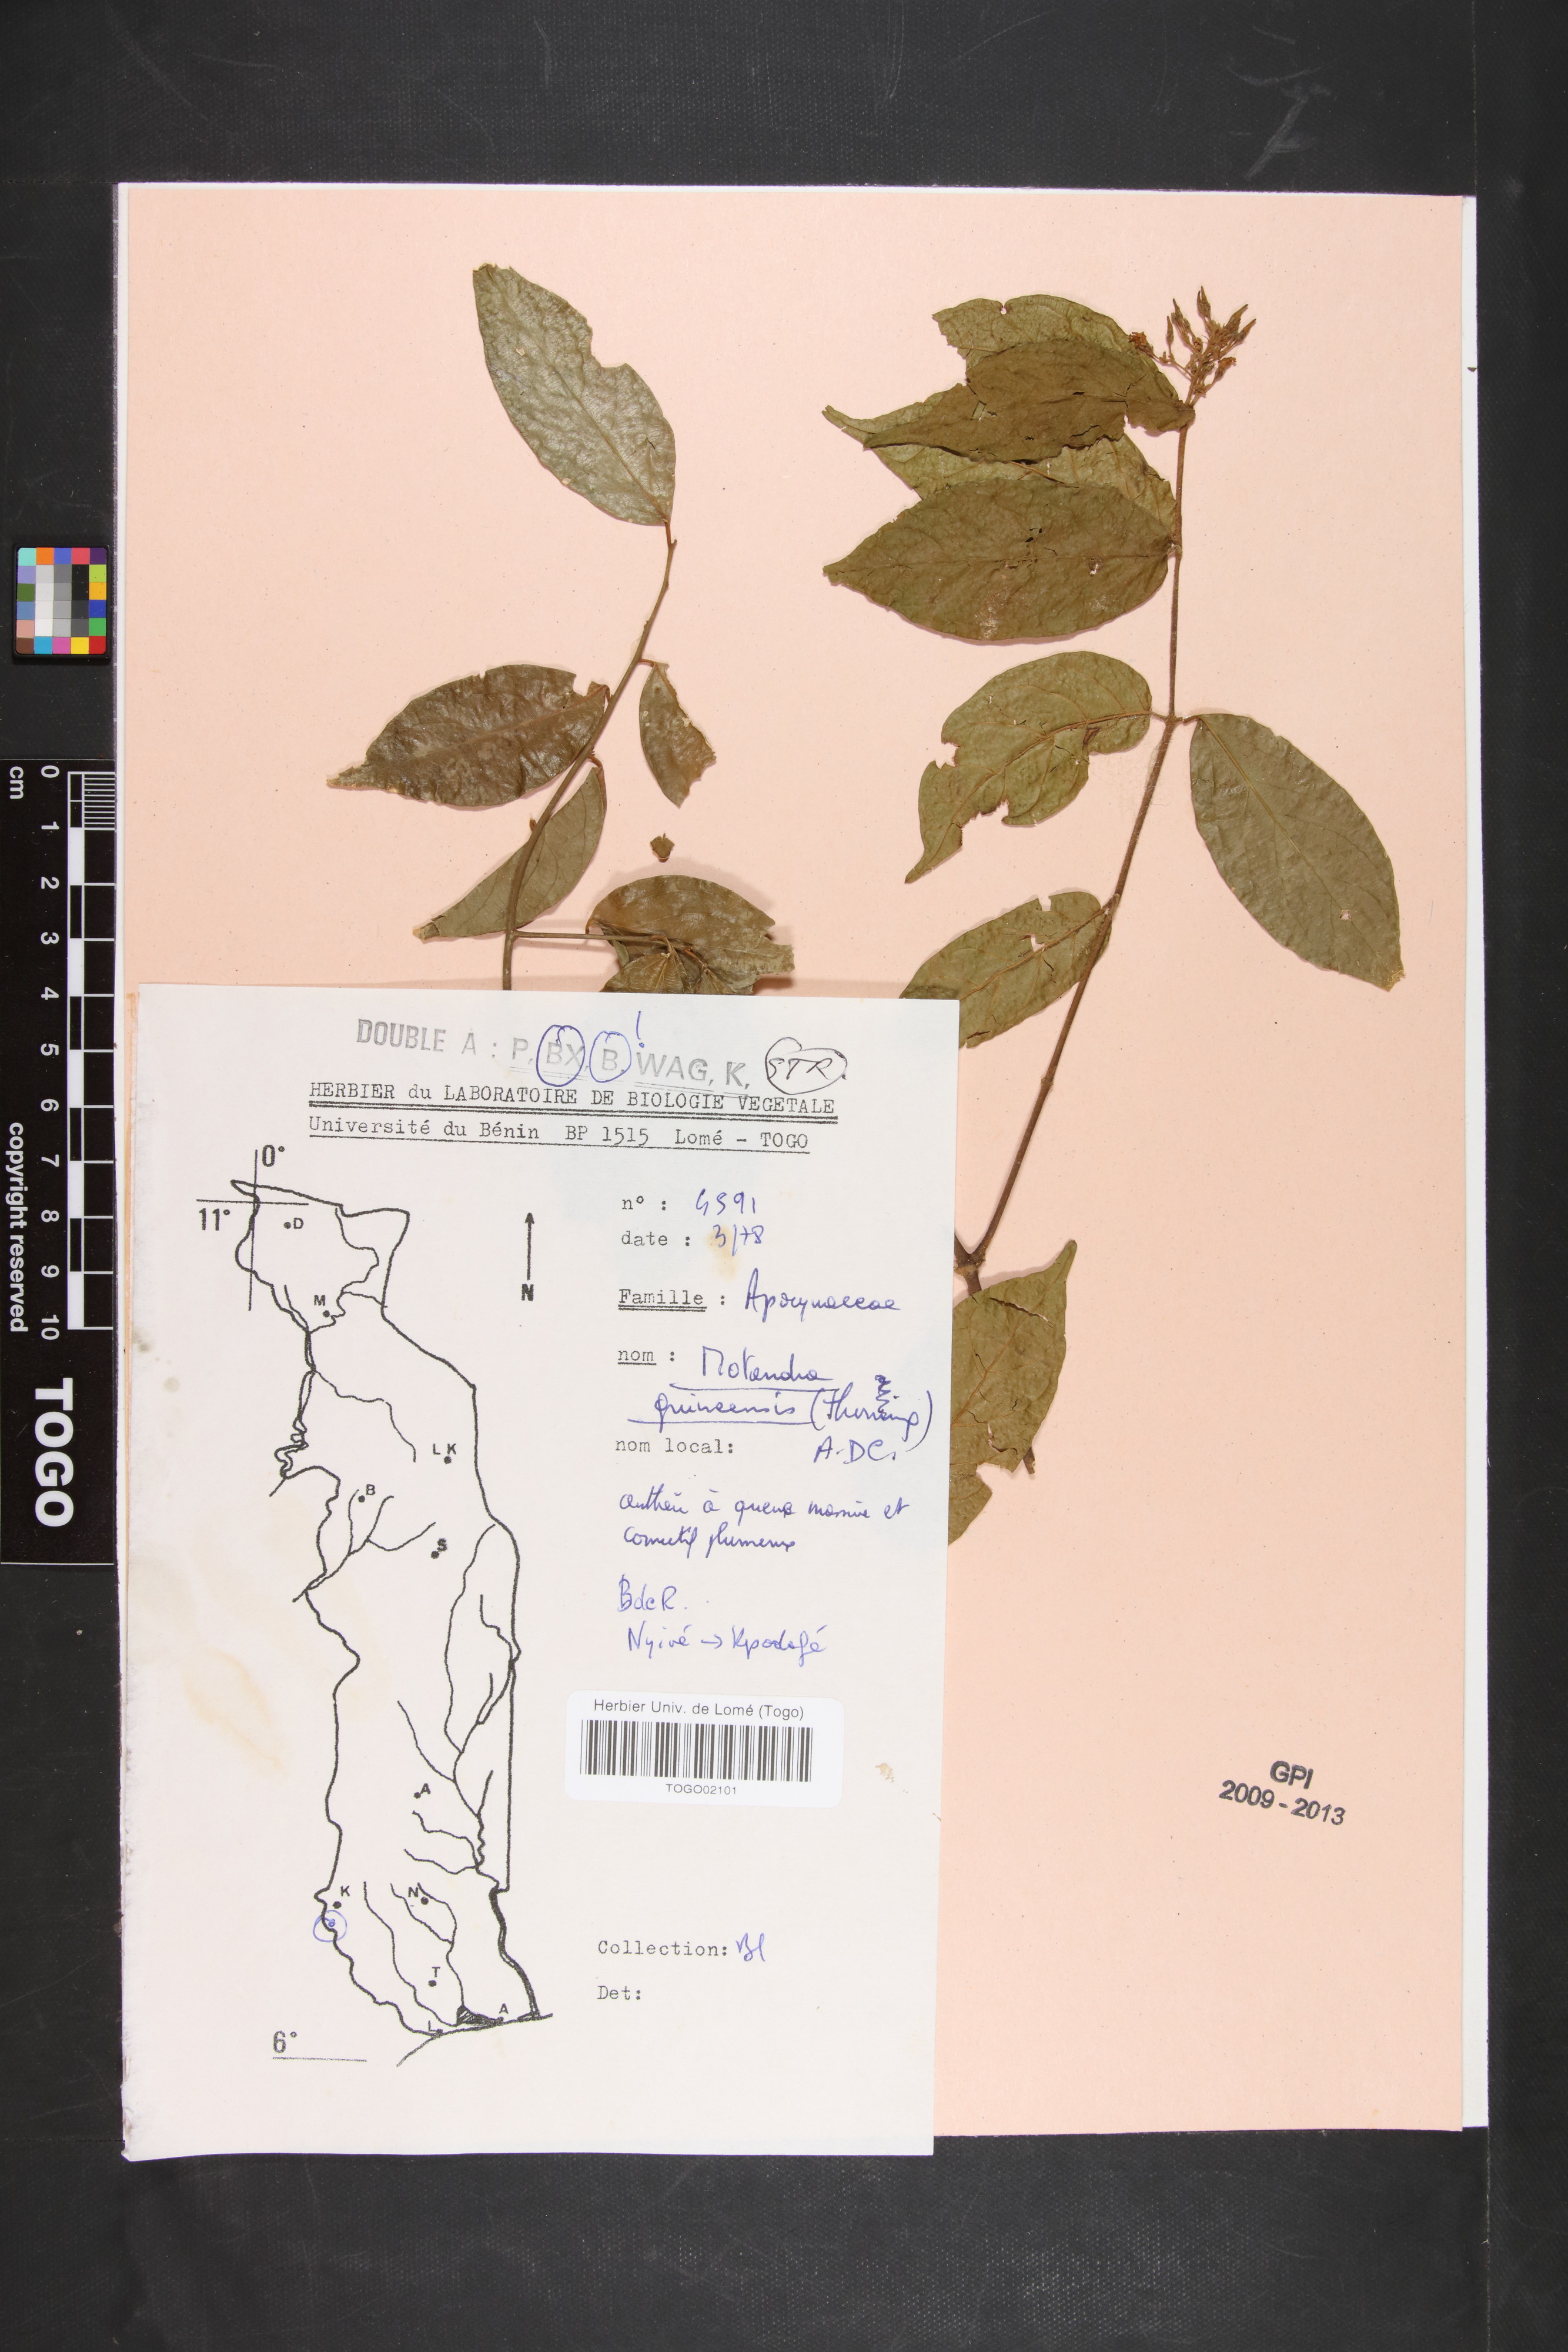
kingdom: Plantae
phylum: Tracheophyta
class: Magnoliopsida
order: Gentianales
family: Apocynaceae
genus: Motandra
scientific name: Motandra paniculata
